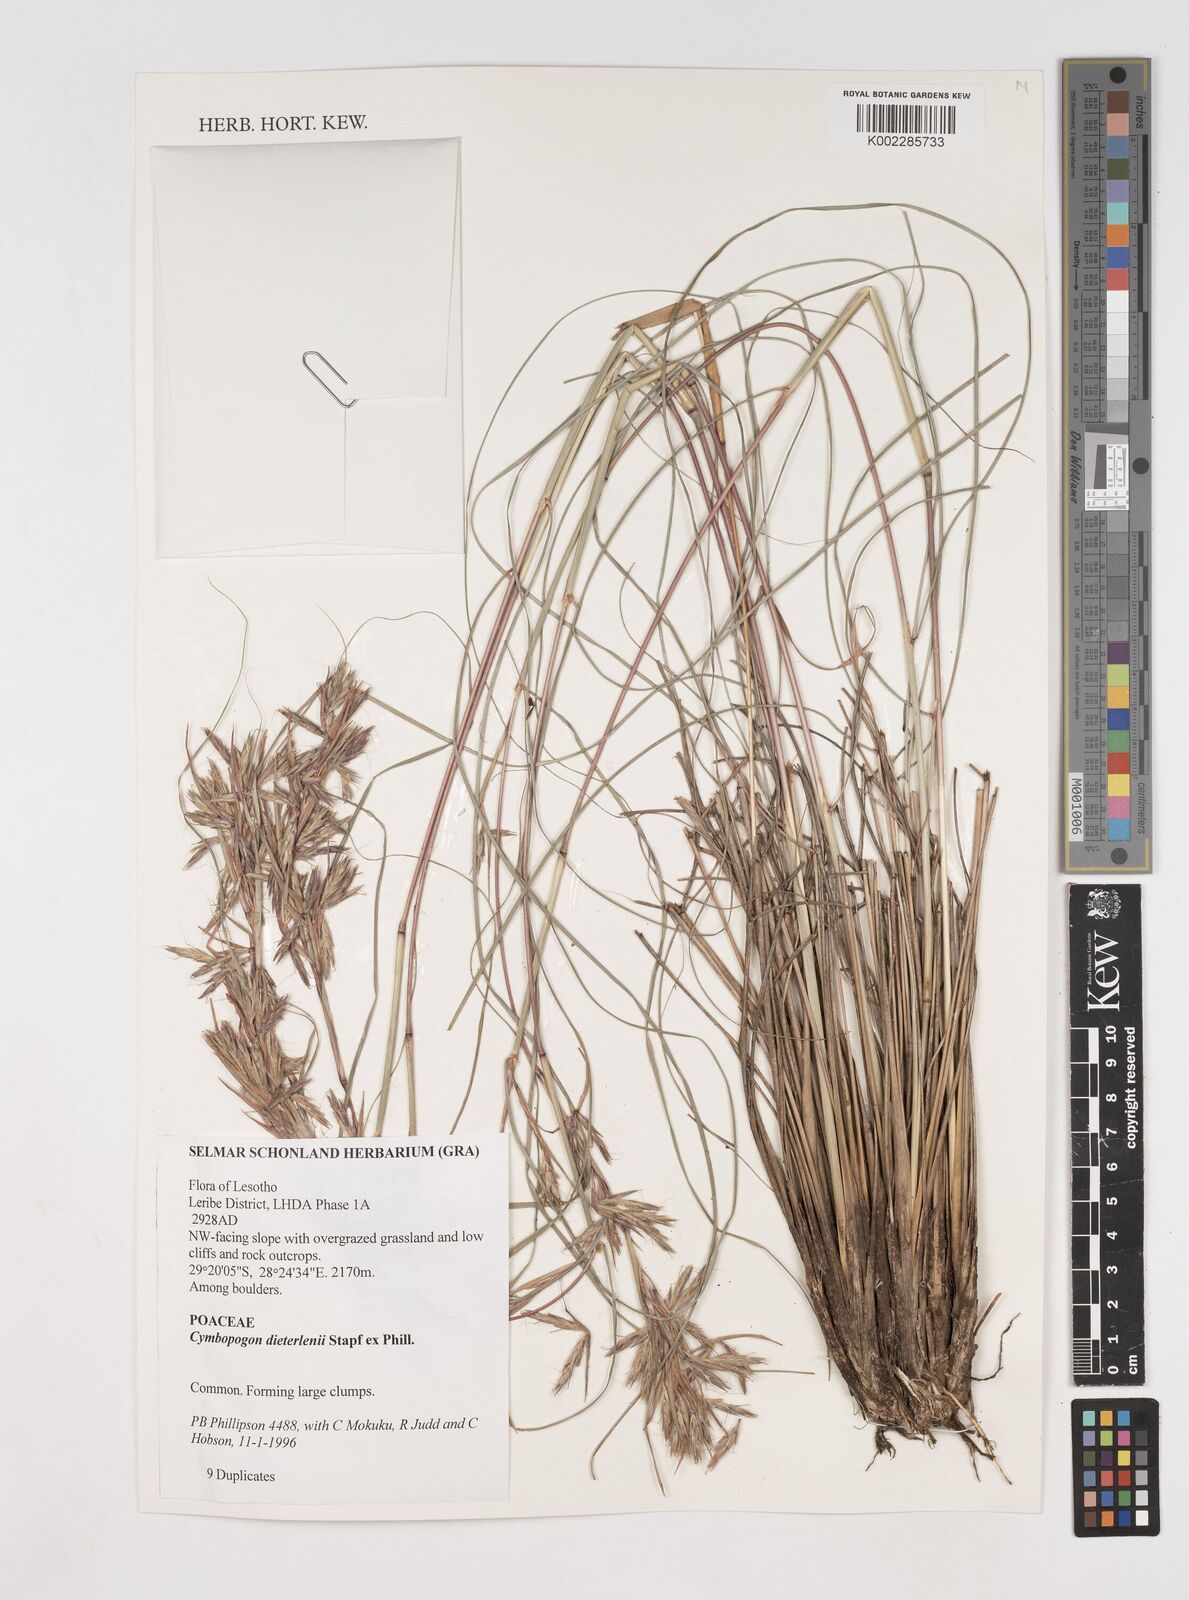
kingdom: Plantae
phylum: Tracheophyta
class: Liliopsida
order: Poales
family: Poaceae
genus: Cymbopogon
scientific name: Cymbopogon dieterlenii
